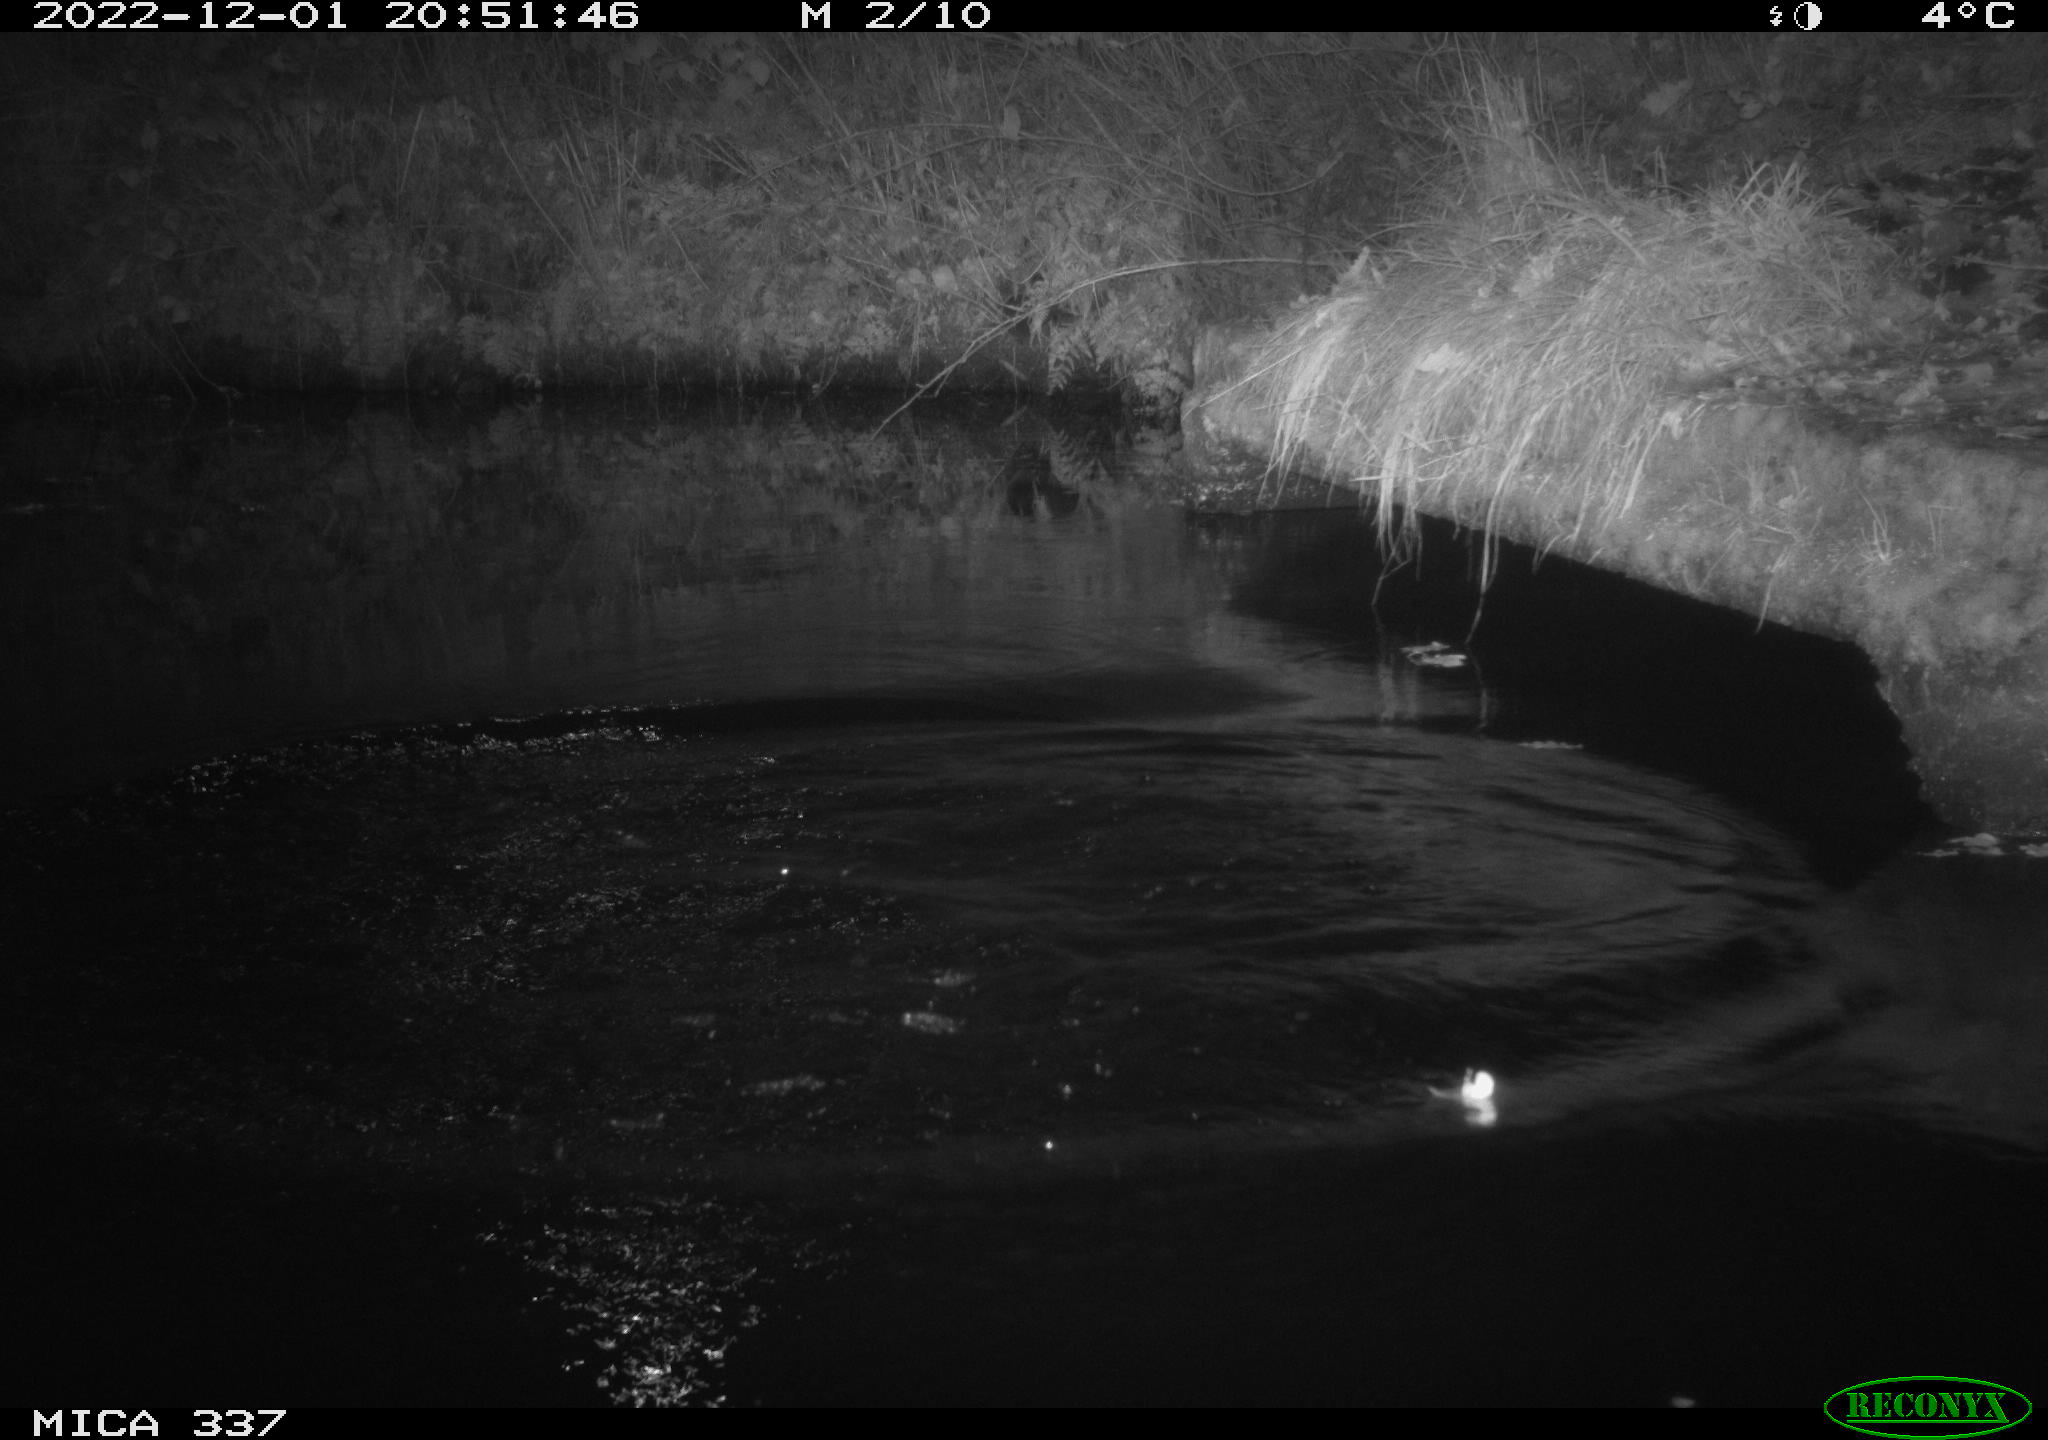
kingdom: Animalia
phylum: Chordata
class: Aves
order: Anseriformes
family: Anatidae
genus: Anas
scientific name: Anas
